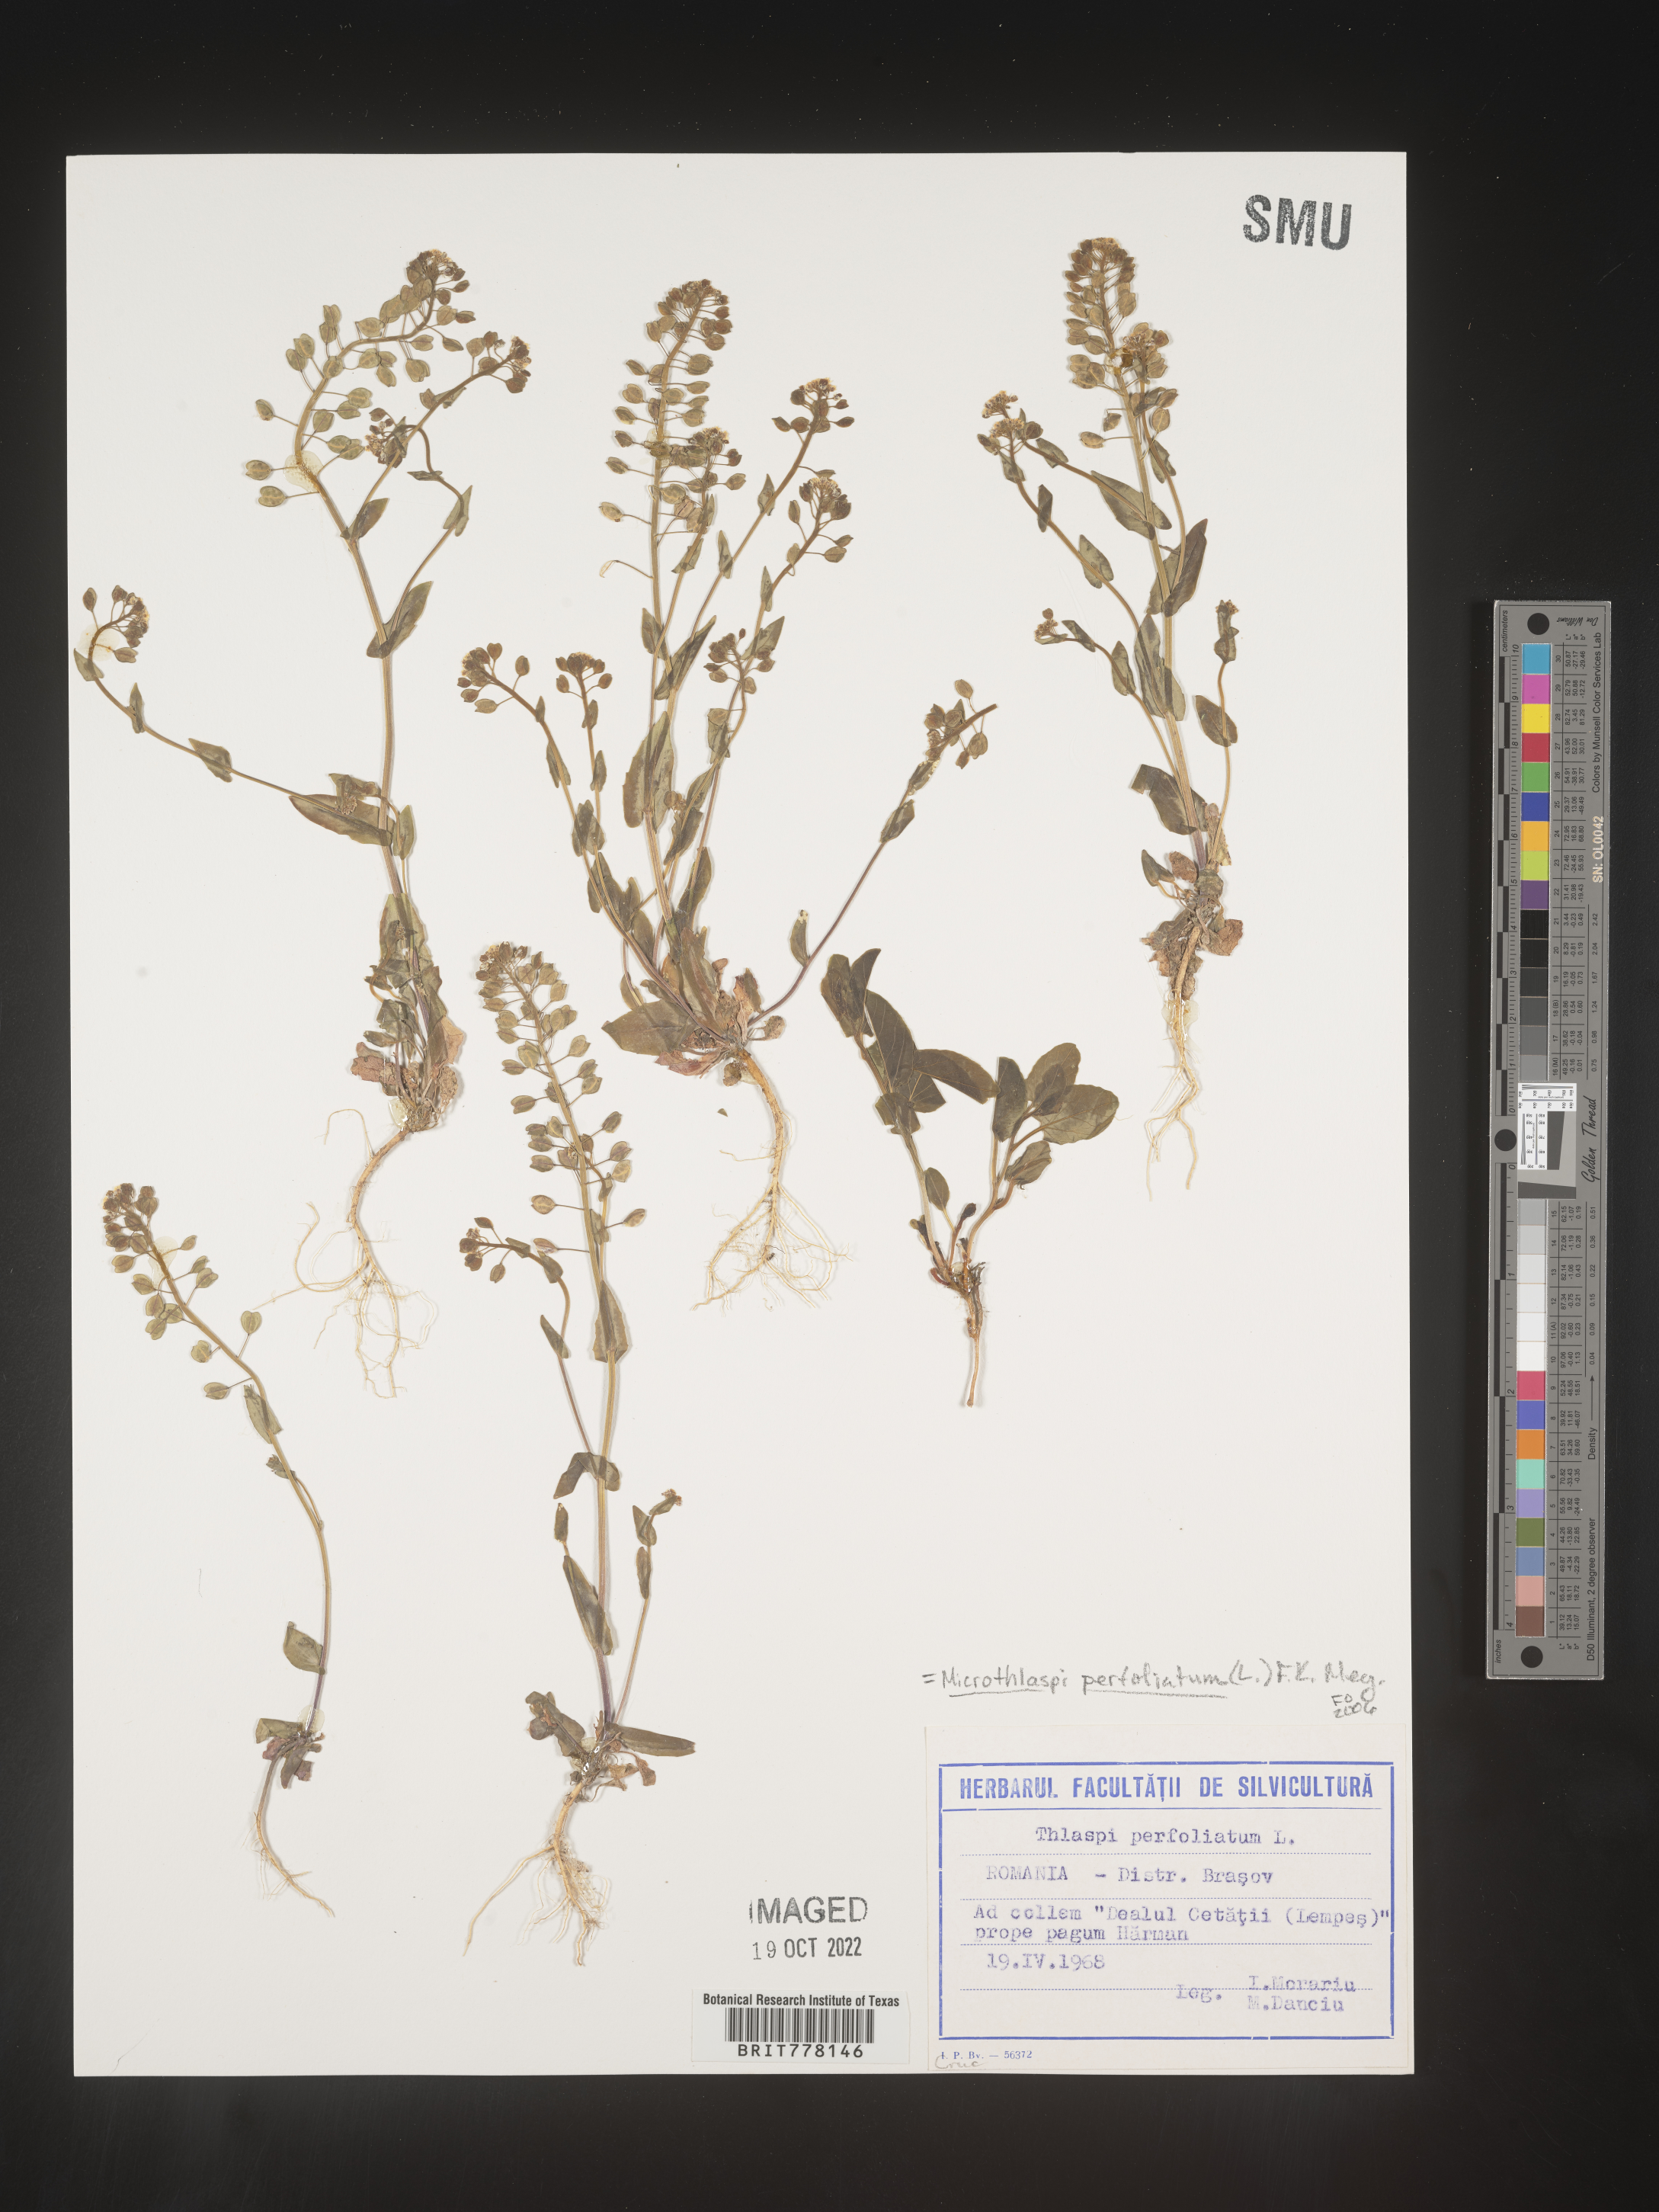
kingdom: Plantae
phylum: Tracheophyta
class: Magnoliopsida
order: Brassicales
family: Brassicaceae
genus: Noccaea
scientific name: Noccaea
